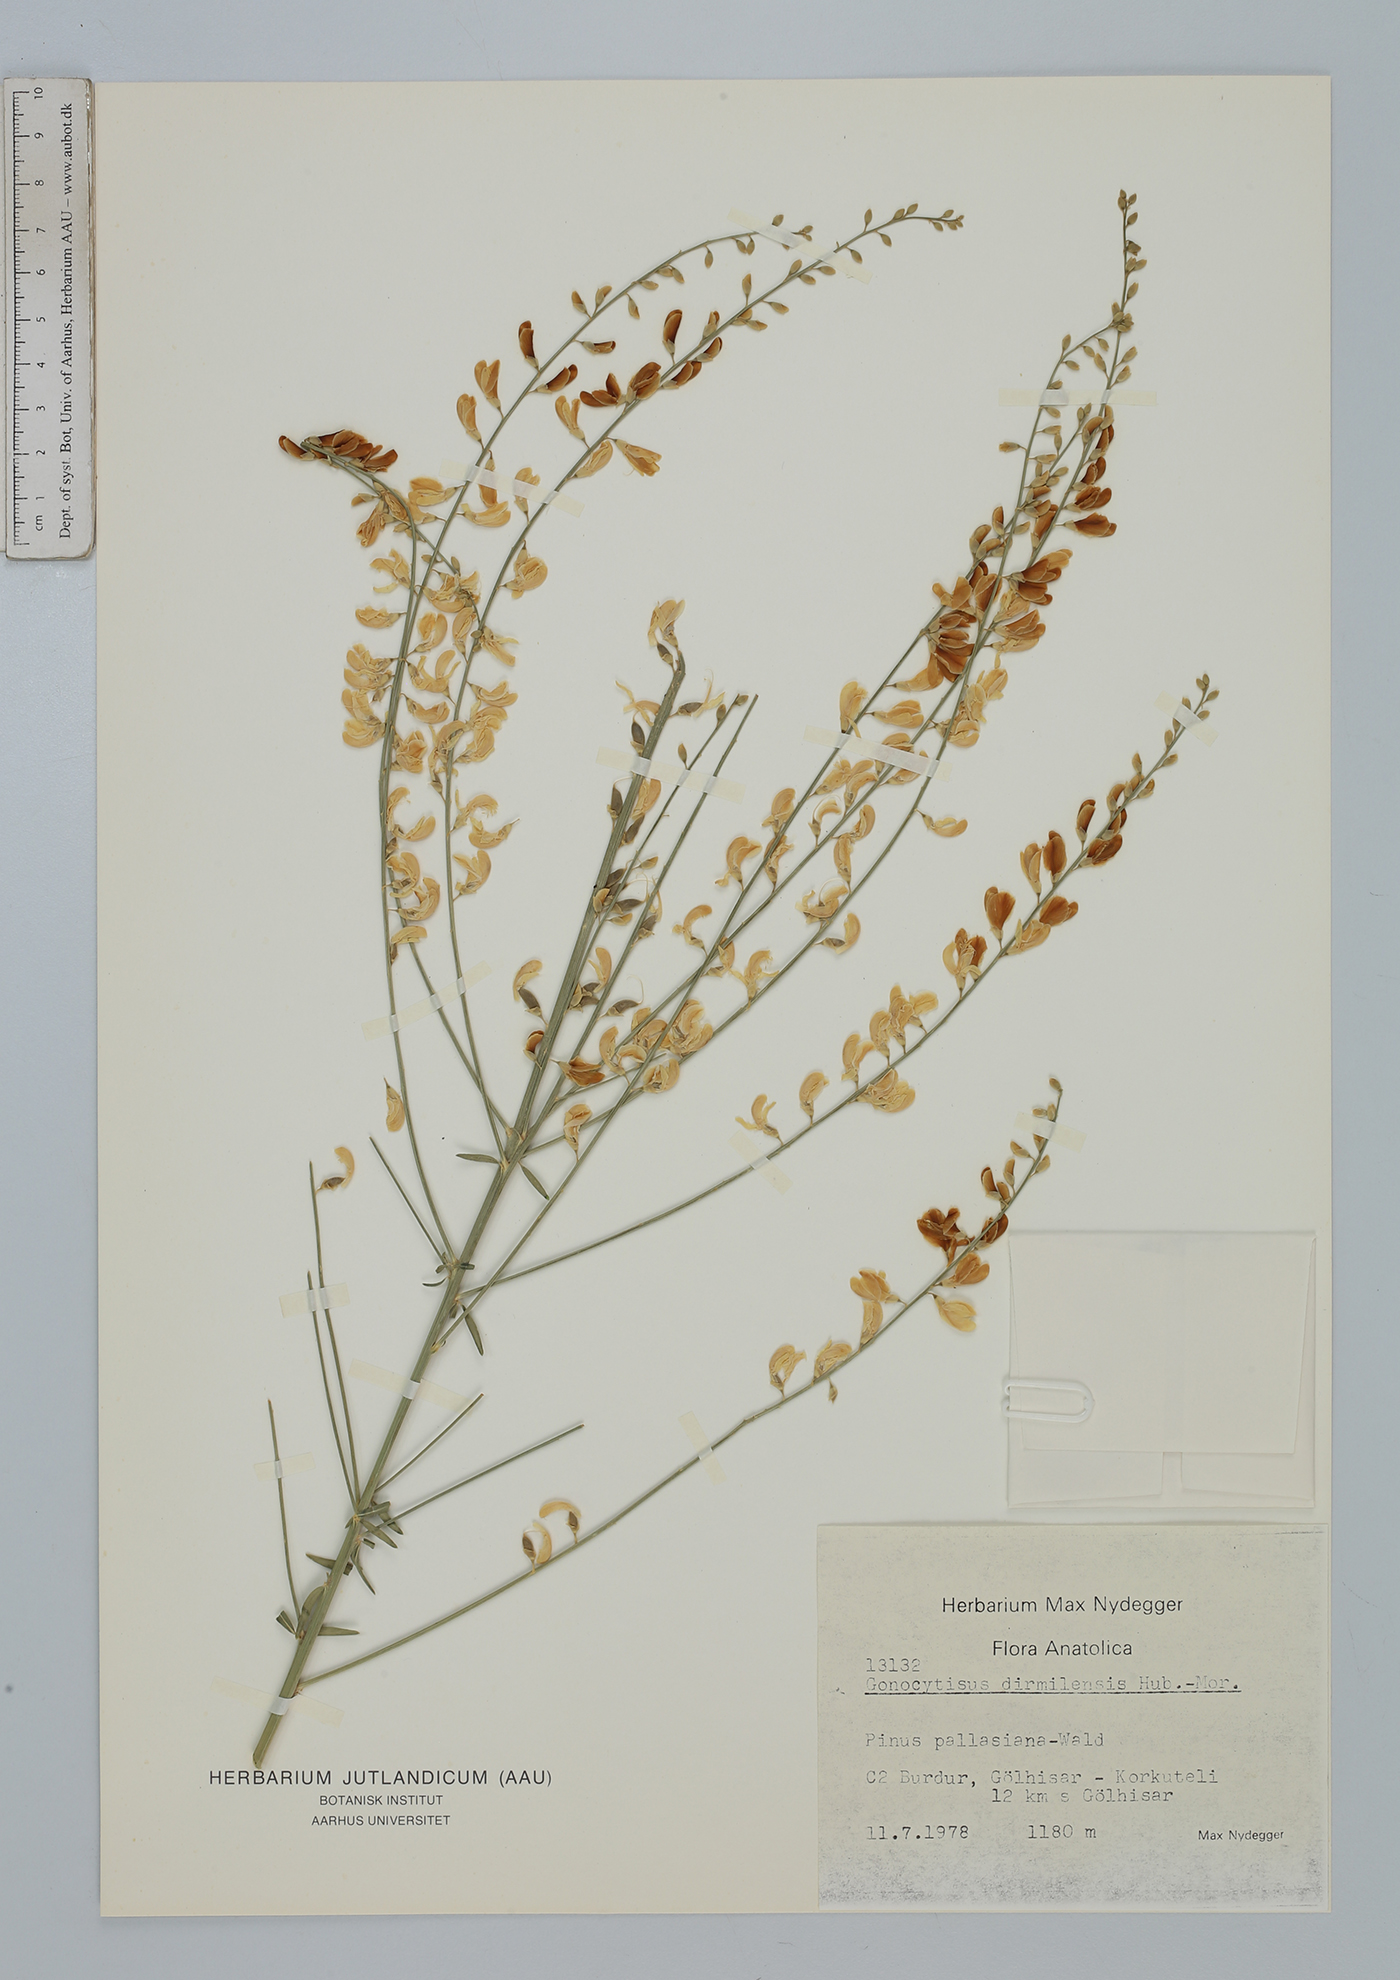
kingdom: Plantae
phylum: Tracheophyta
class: Magnoliopsida
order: Fabales
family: Fabaceae
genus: Gonocytisus
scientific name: Gonocytisus dirmilensis
